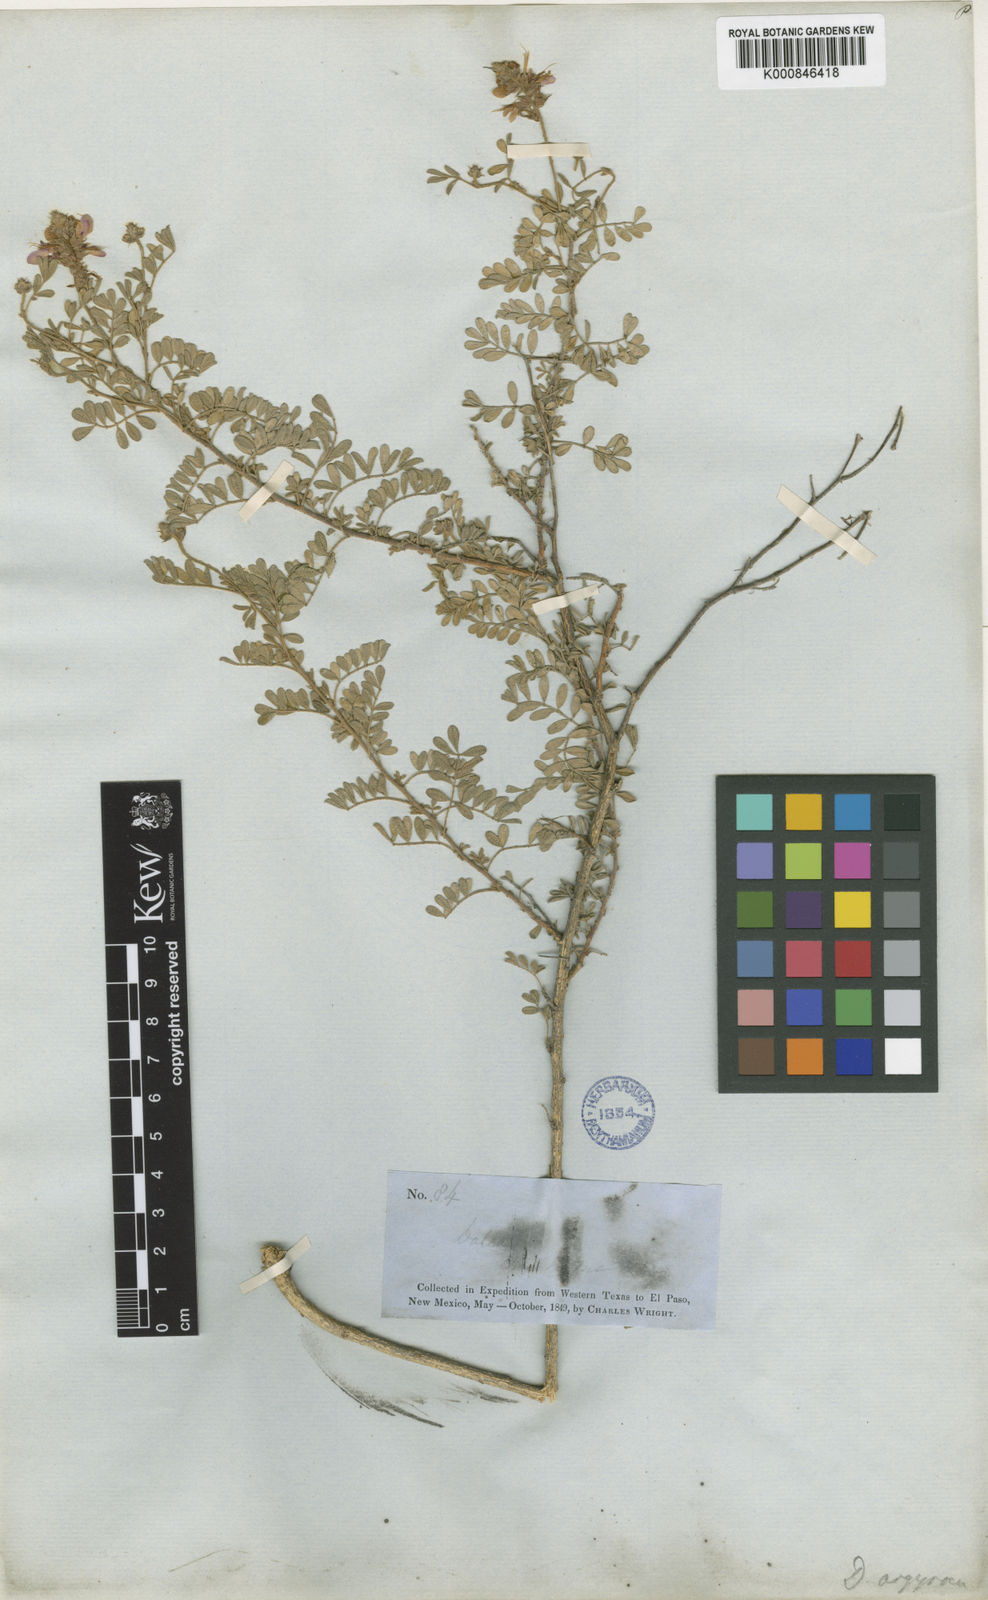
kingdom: Plantae
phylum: Tracheophyta
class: Magnoliopsida
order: Fabales
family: Fabaceae
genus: Dalea
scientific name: Dalea bicolor
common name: Silver prairie-clover
